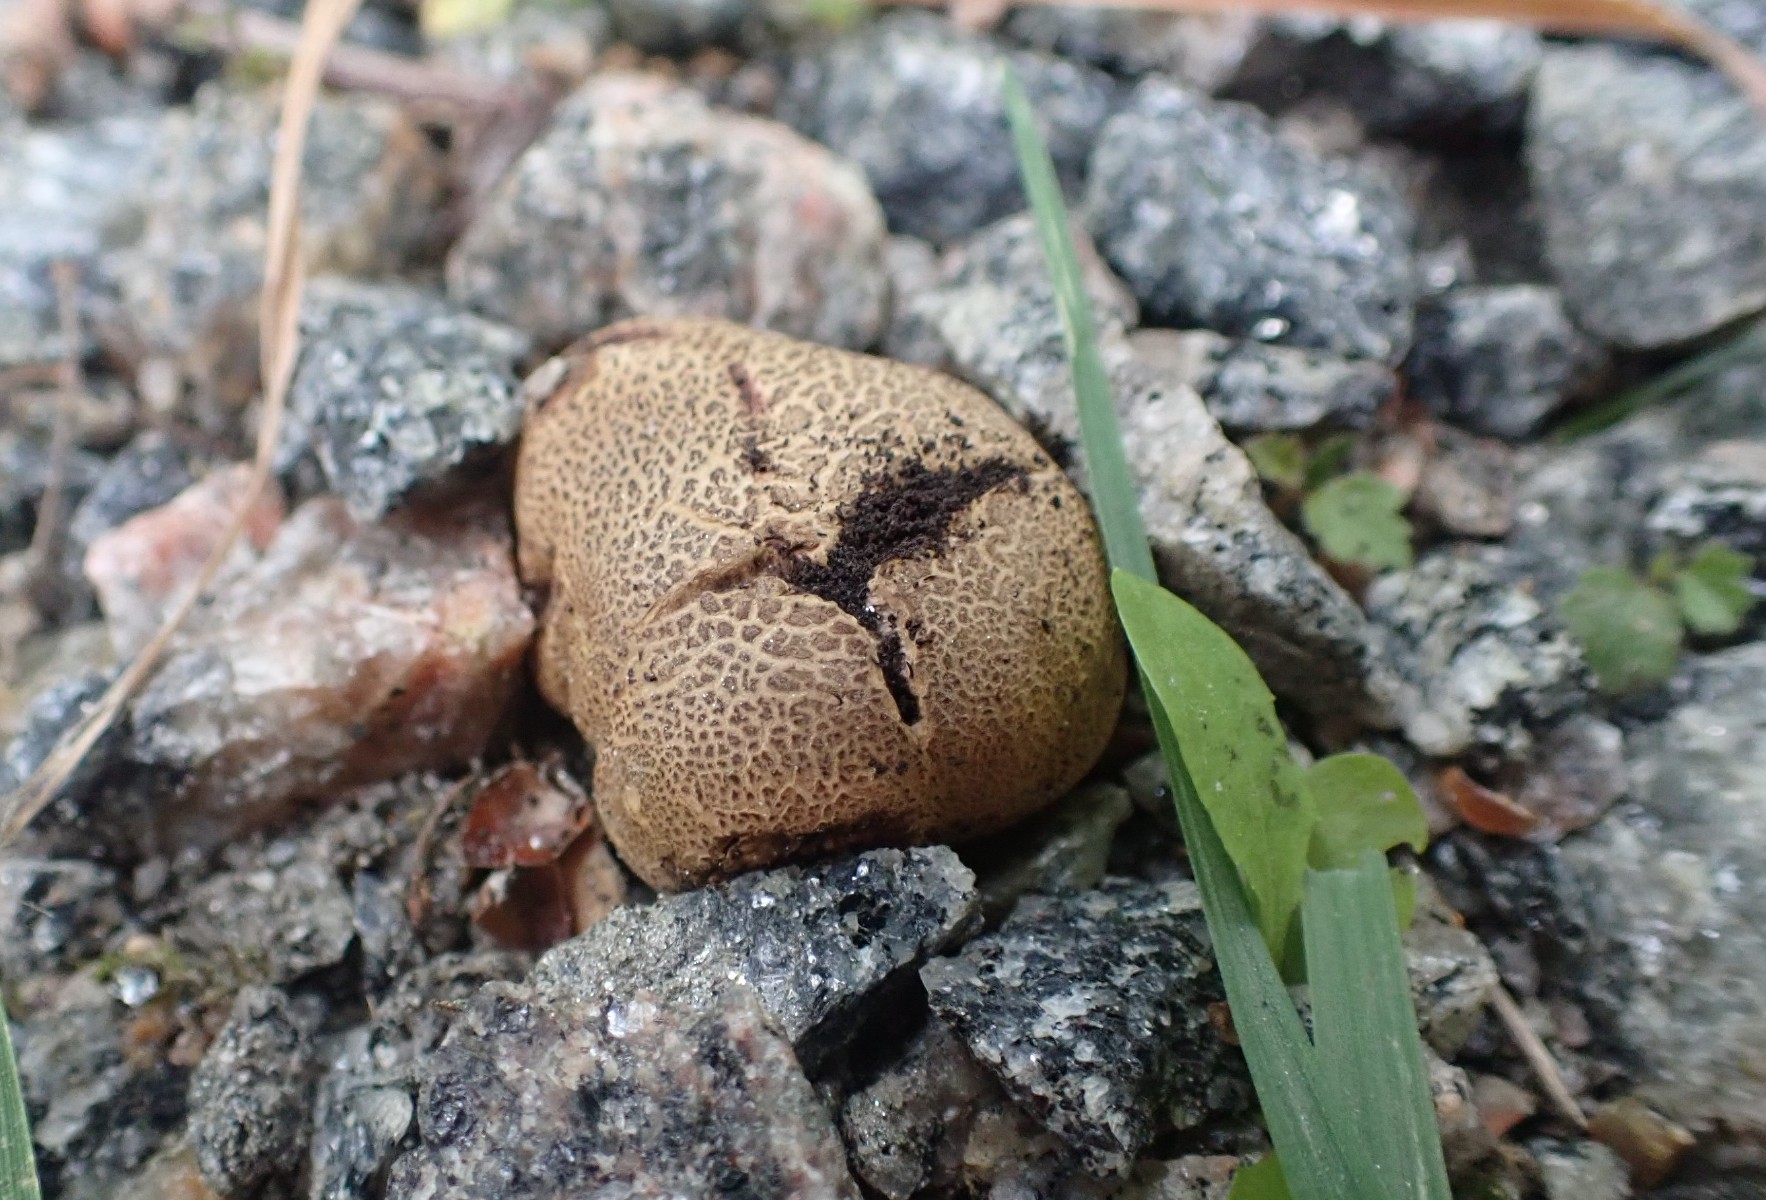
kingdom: Fungi
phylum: Basidiomycota
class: Agaricomycetes
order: Boletales
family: Sclerodermataceae
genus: Scleroderma
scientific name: Scleroderma areolatum
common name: plettet bruskbold
